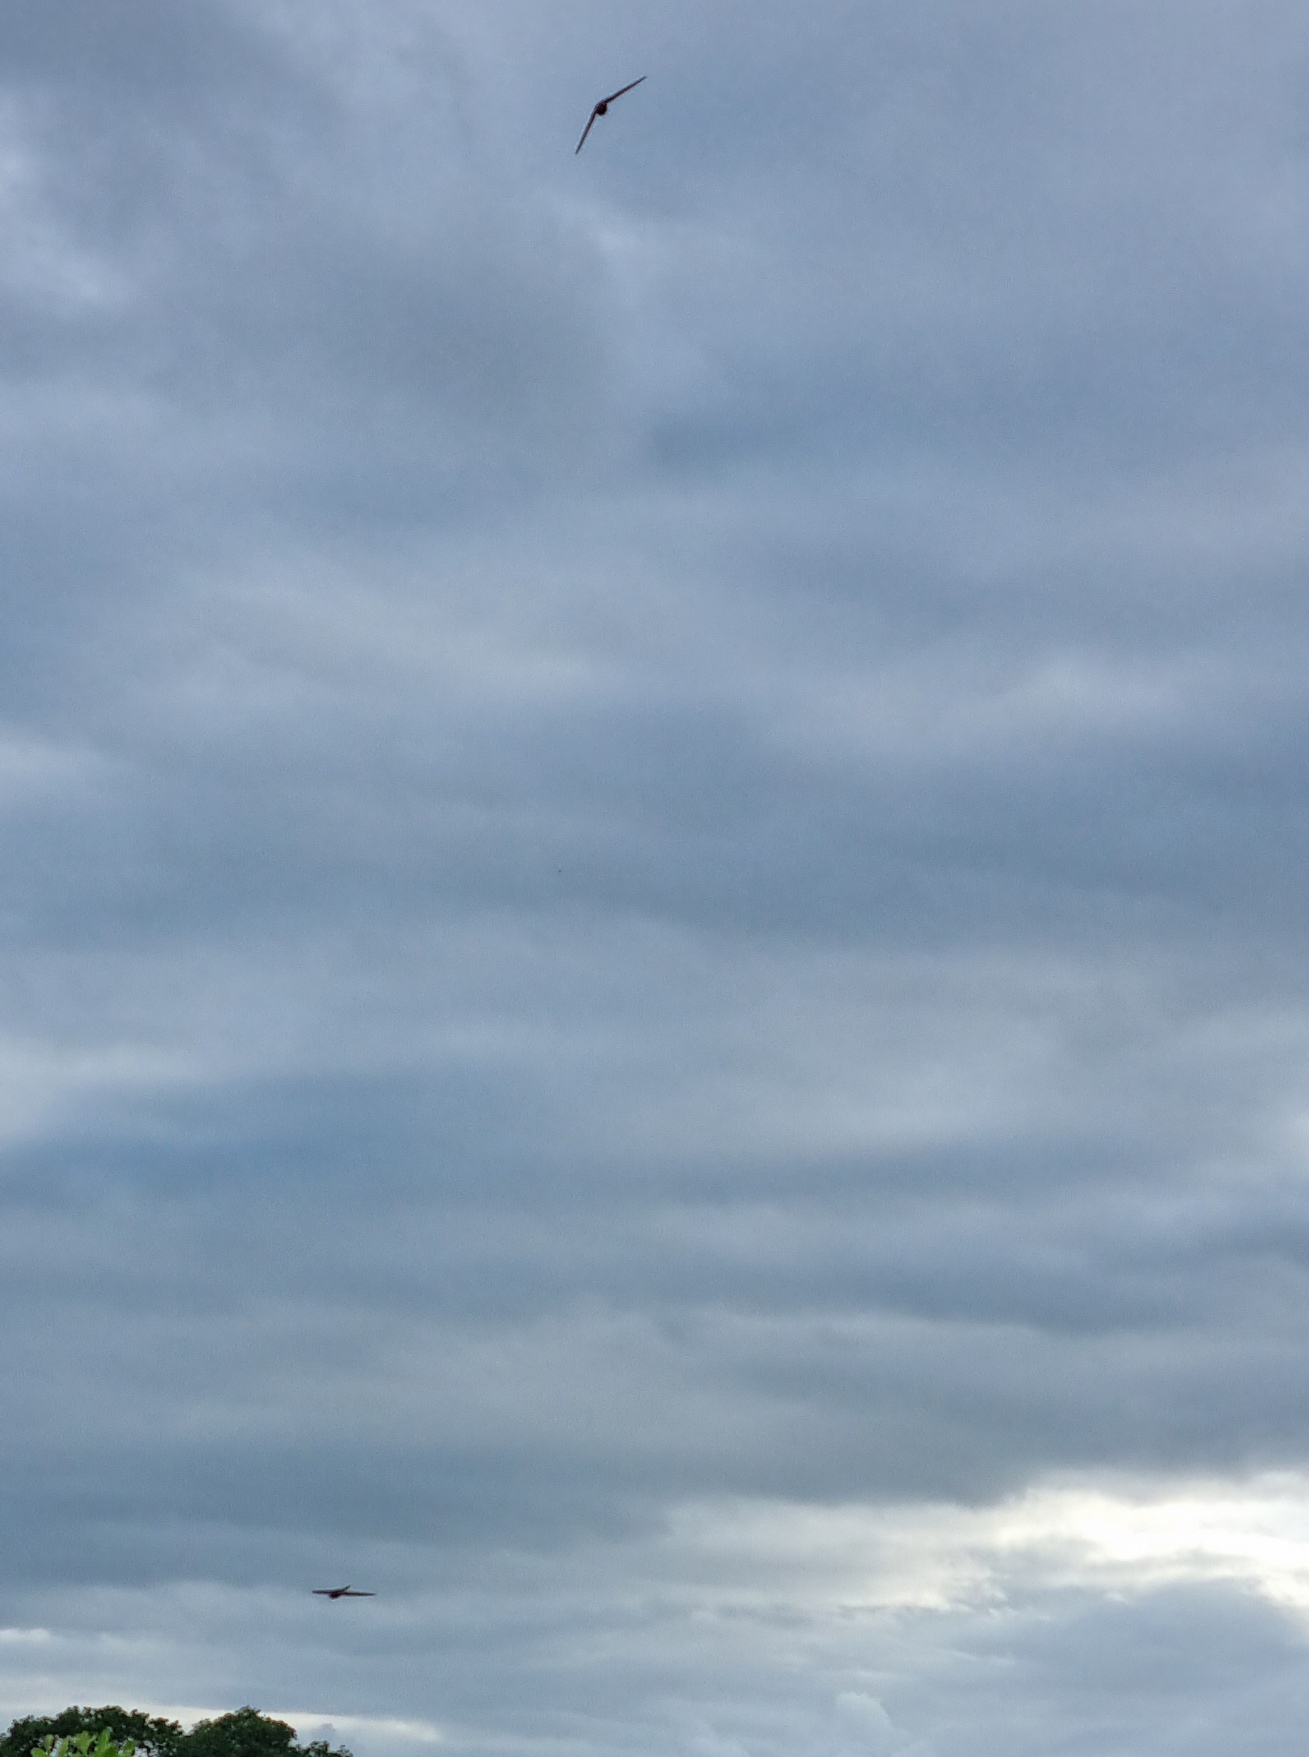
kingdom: Animalia
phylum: Chordata
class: Aves
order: Apodiformes
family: Apodidae
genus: Apus
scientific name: Apus apus
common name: Mursejler
